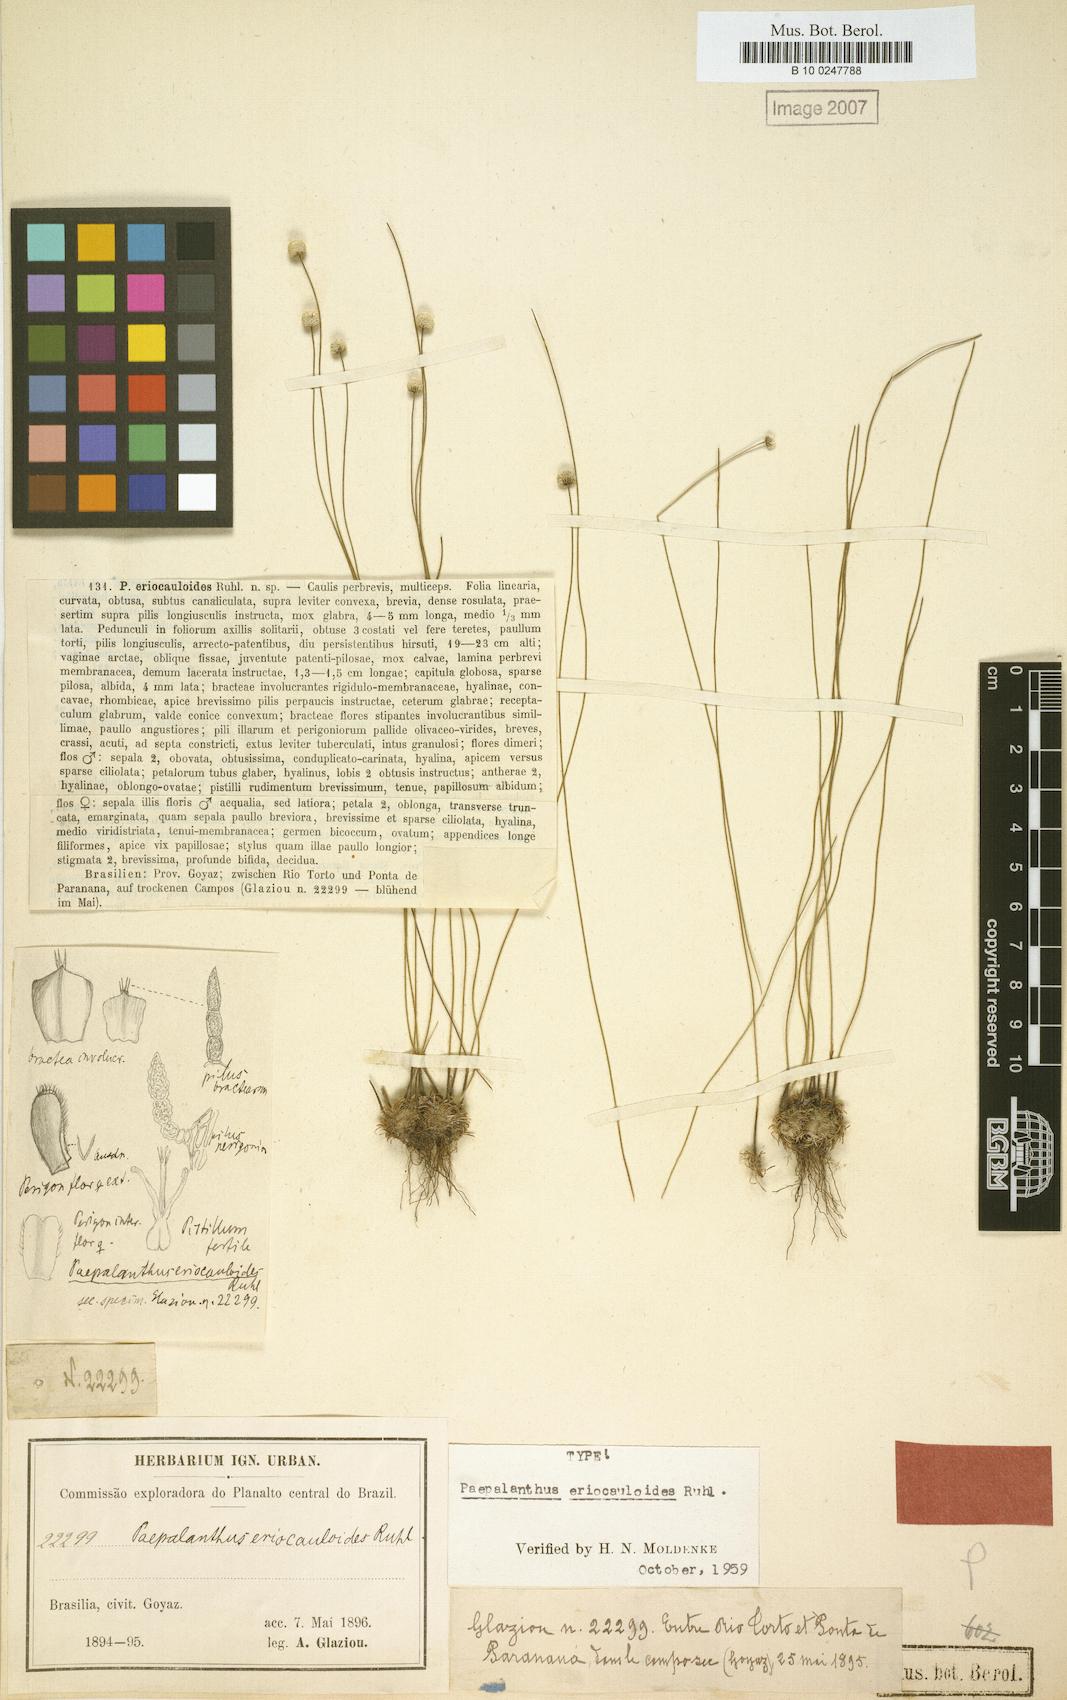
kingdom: Plantae
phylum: Tracheophyta
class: Liliopsida
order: Poales
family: Eriocaulaceae
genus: Paepalanthus
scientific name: Paepalanthus eriocauloides
